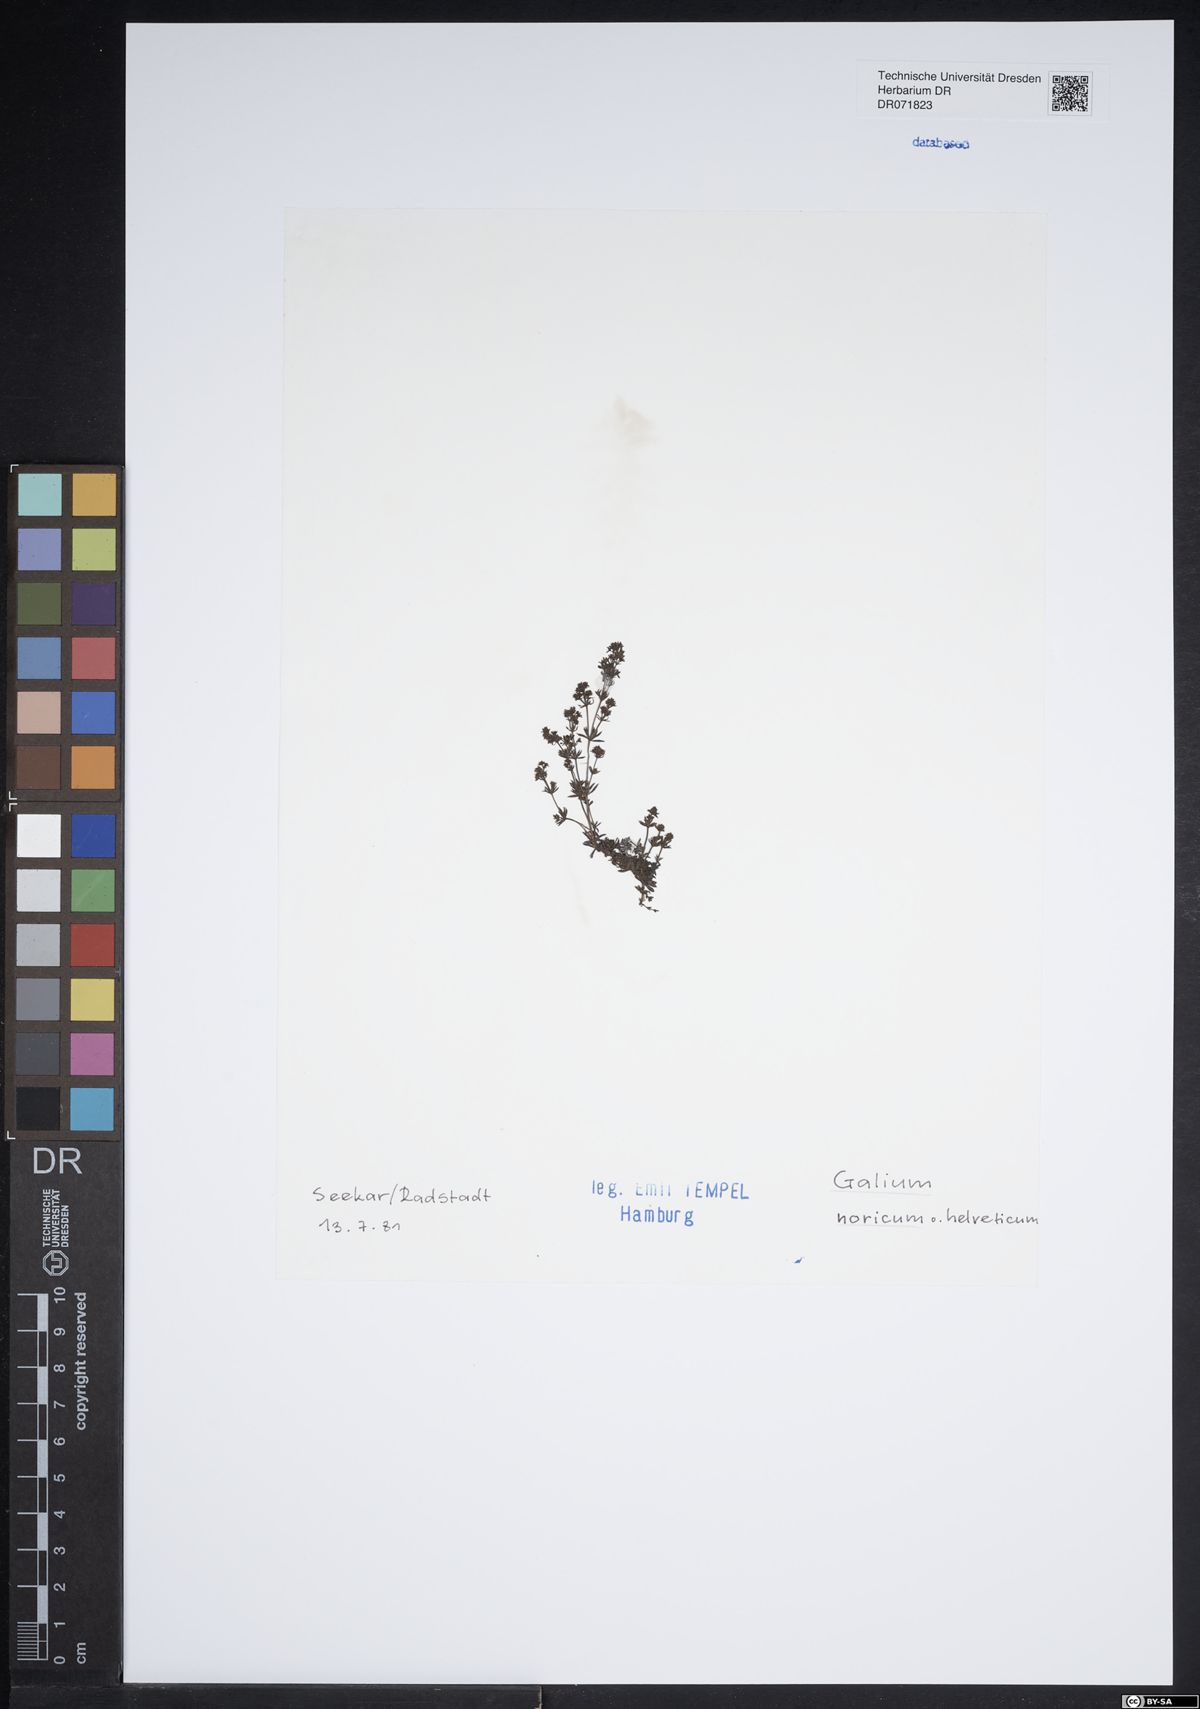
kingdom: Plantae
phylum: Tracheophyta
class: Magnoliopsida
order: Gentianales
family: Rubiaceae
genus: Galium
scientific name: Galium noricum
